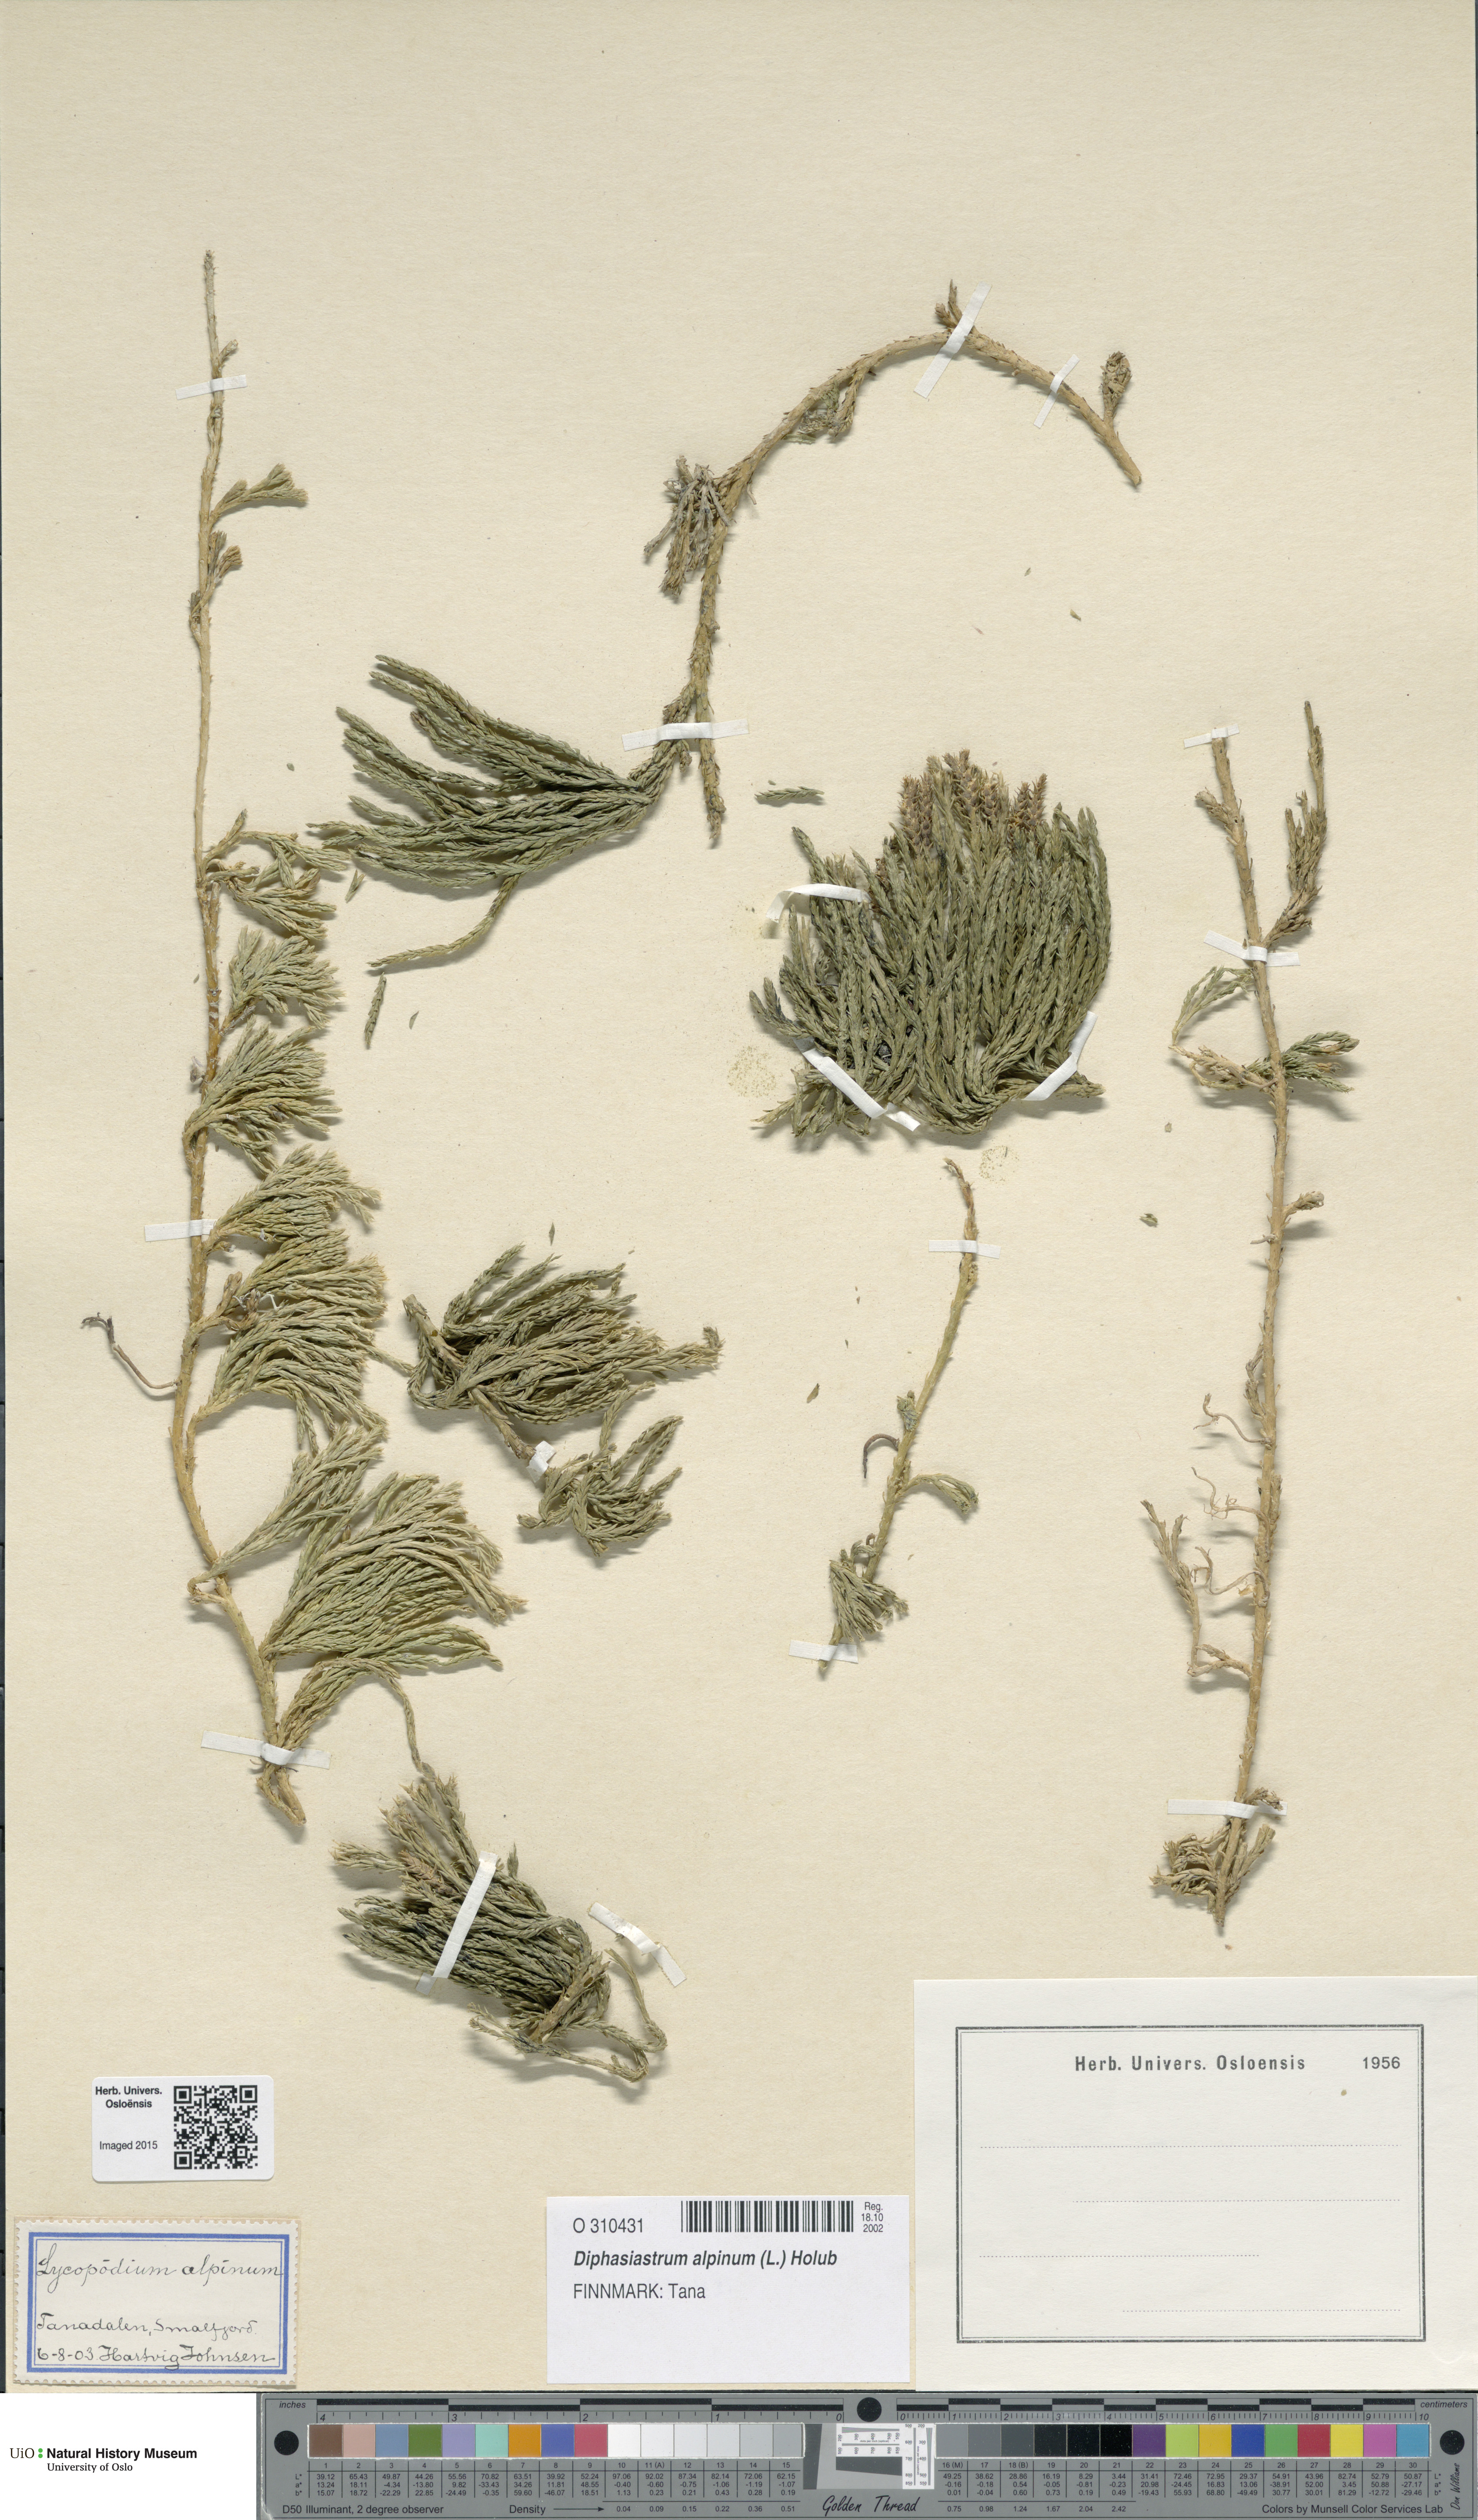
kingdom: Plantae
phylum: Tracheophyta
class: Lycopodiopsida
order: Lycopodiales
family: Lycopodiaceae
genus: Diphasiastrum
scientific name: Diphasiastrum alpinum
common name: Alpine clubmoss
